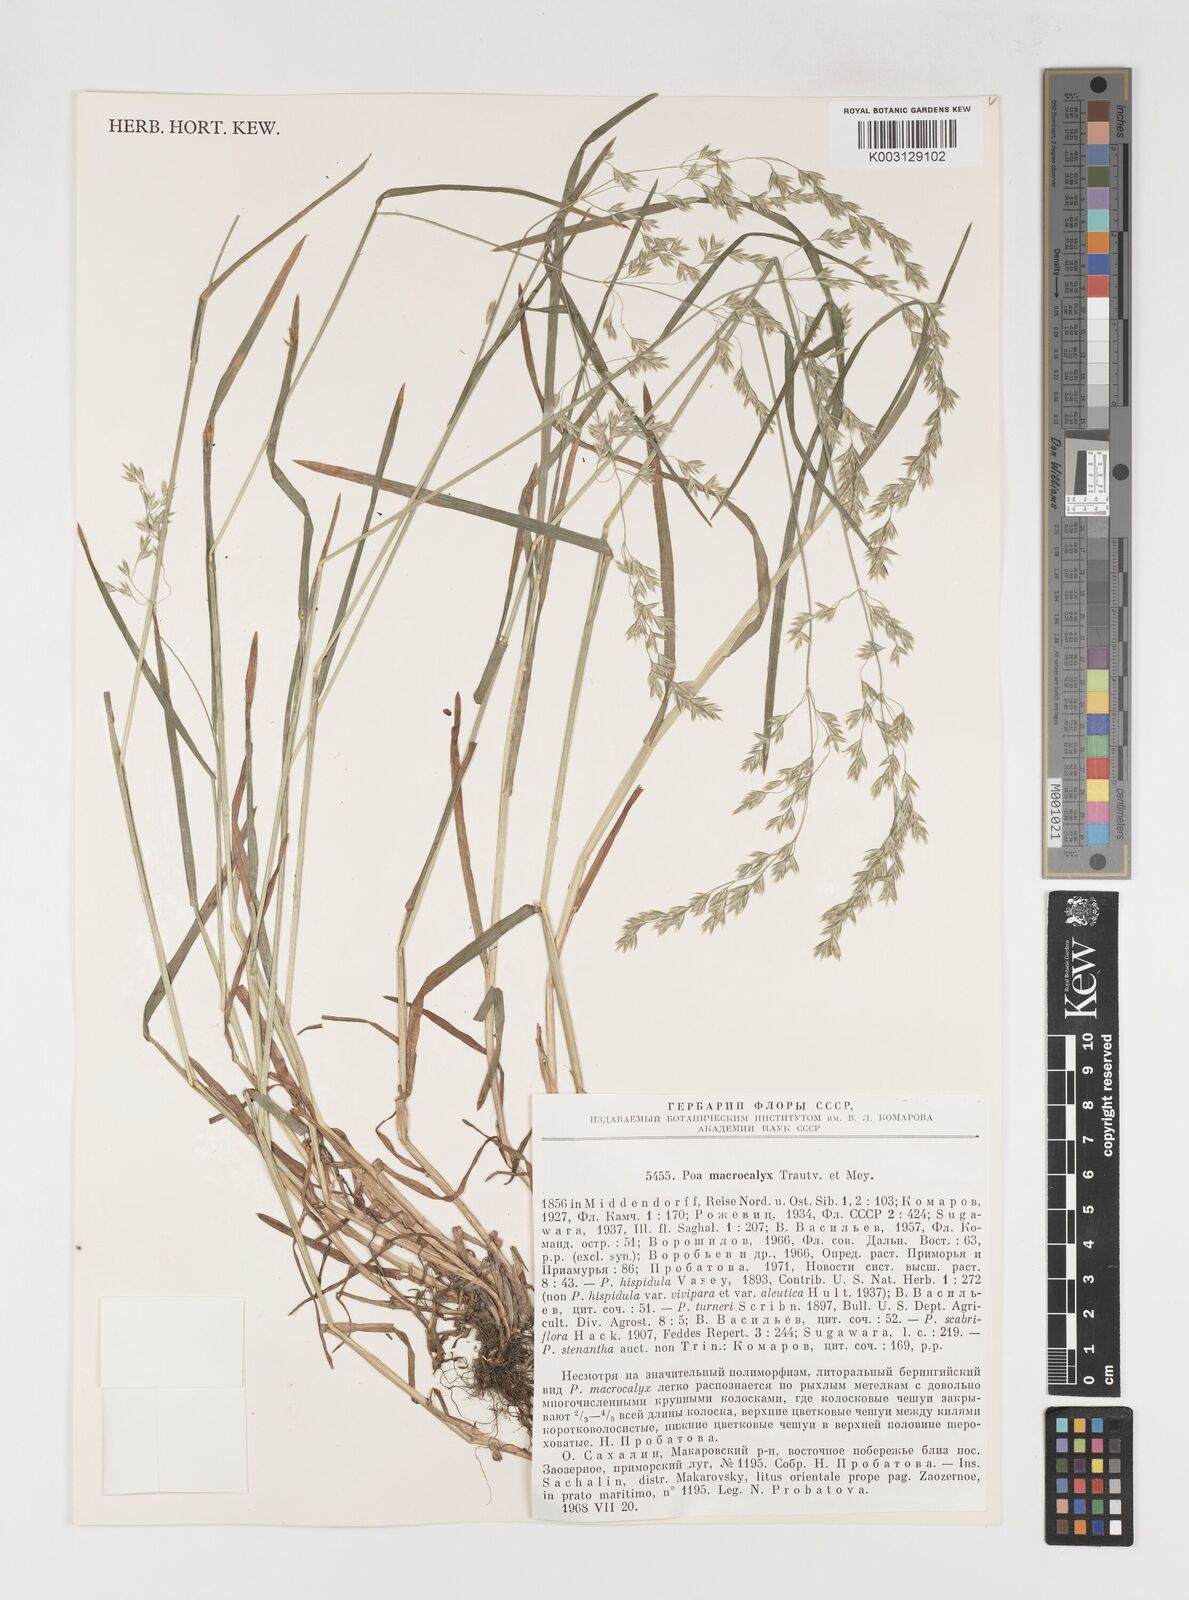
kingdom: Plantae
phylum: Tracheophyta
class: Liliopsida
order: Poales
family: Poaceae
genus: Poa
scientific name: Poa macrocalyx
